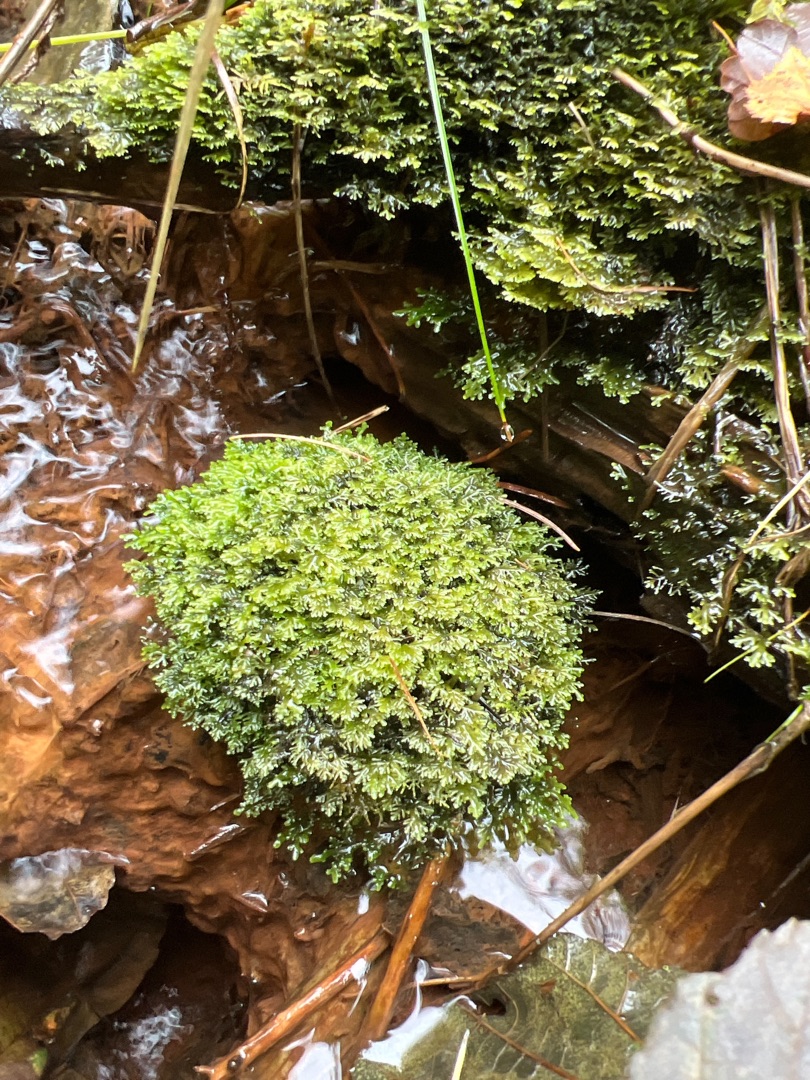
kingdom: Plantae
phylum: Marchantiophyta
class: Jungermanniopsida
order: Metzgeriales
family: Aneuraceae
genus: Riccardia
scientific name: Riccardia multifida
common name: Fjergrenet ribbeløs
